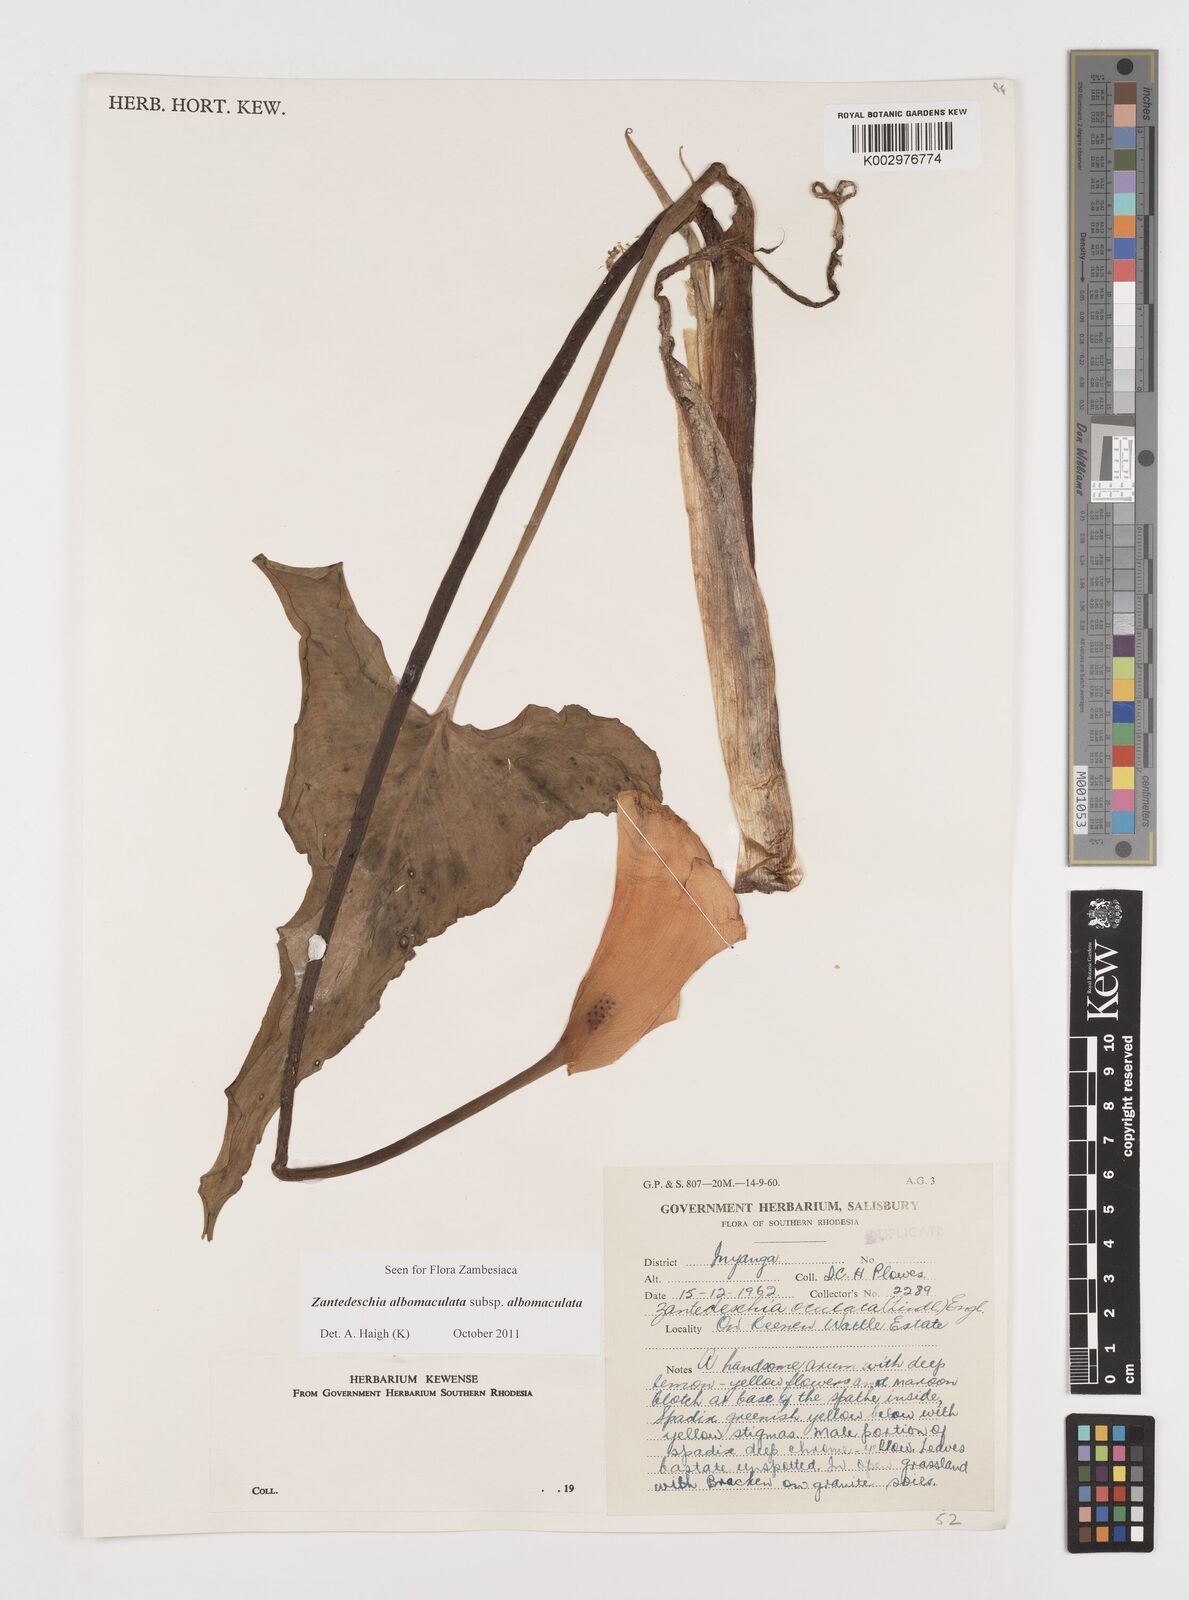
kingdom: Plantae
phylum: Tracheophyta
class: Liliopsida
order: Alismatales
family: Araceae
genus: Zantedeschia
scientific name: Zantedeschia albomaculata
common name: Spotted calla lily
